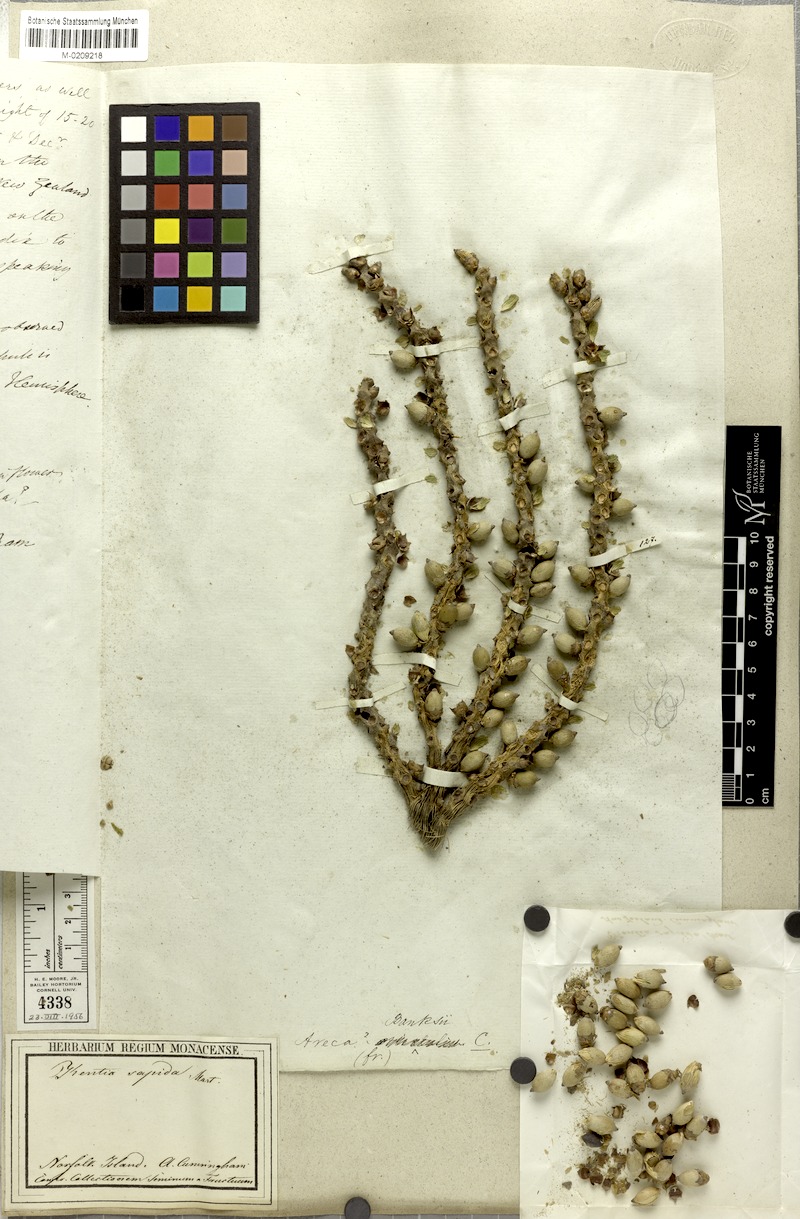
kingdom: Plantae
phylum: Tracheophyta
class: Liliopsida
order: Arecales
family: Arecaceae
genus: Rhopalostylis
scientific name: Rhopalostylis sapida
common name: Feather-duster palm
